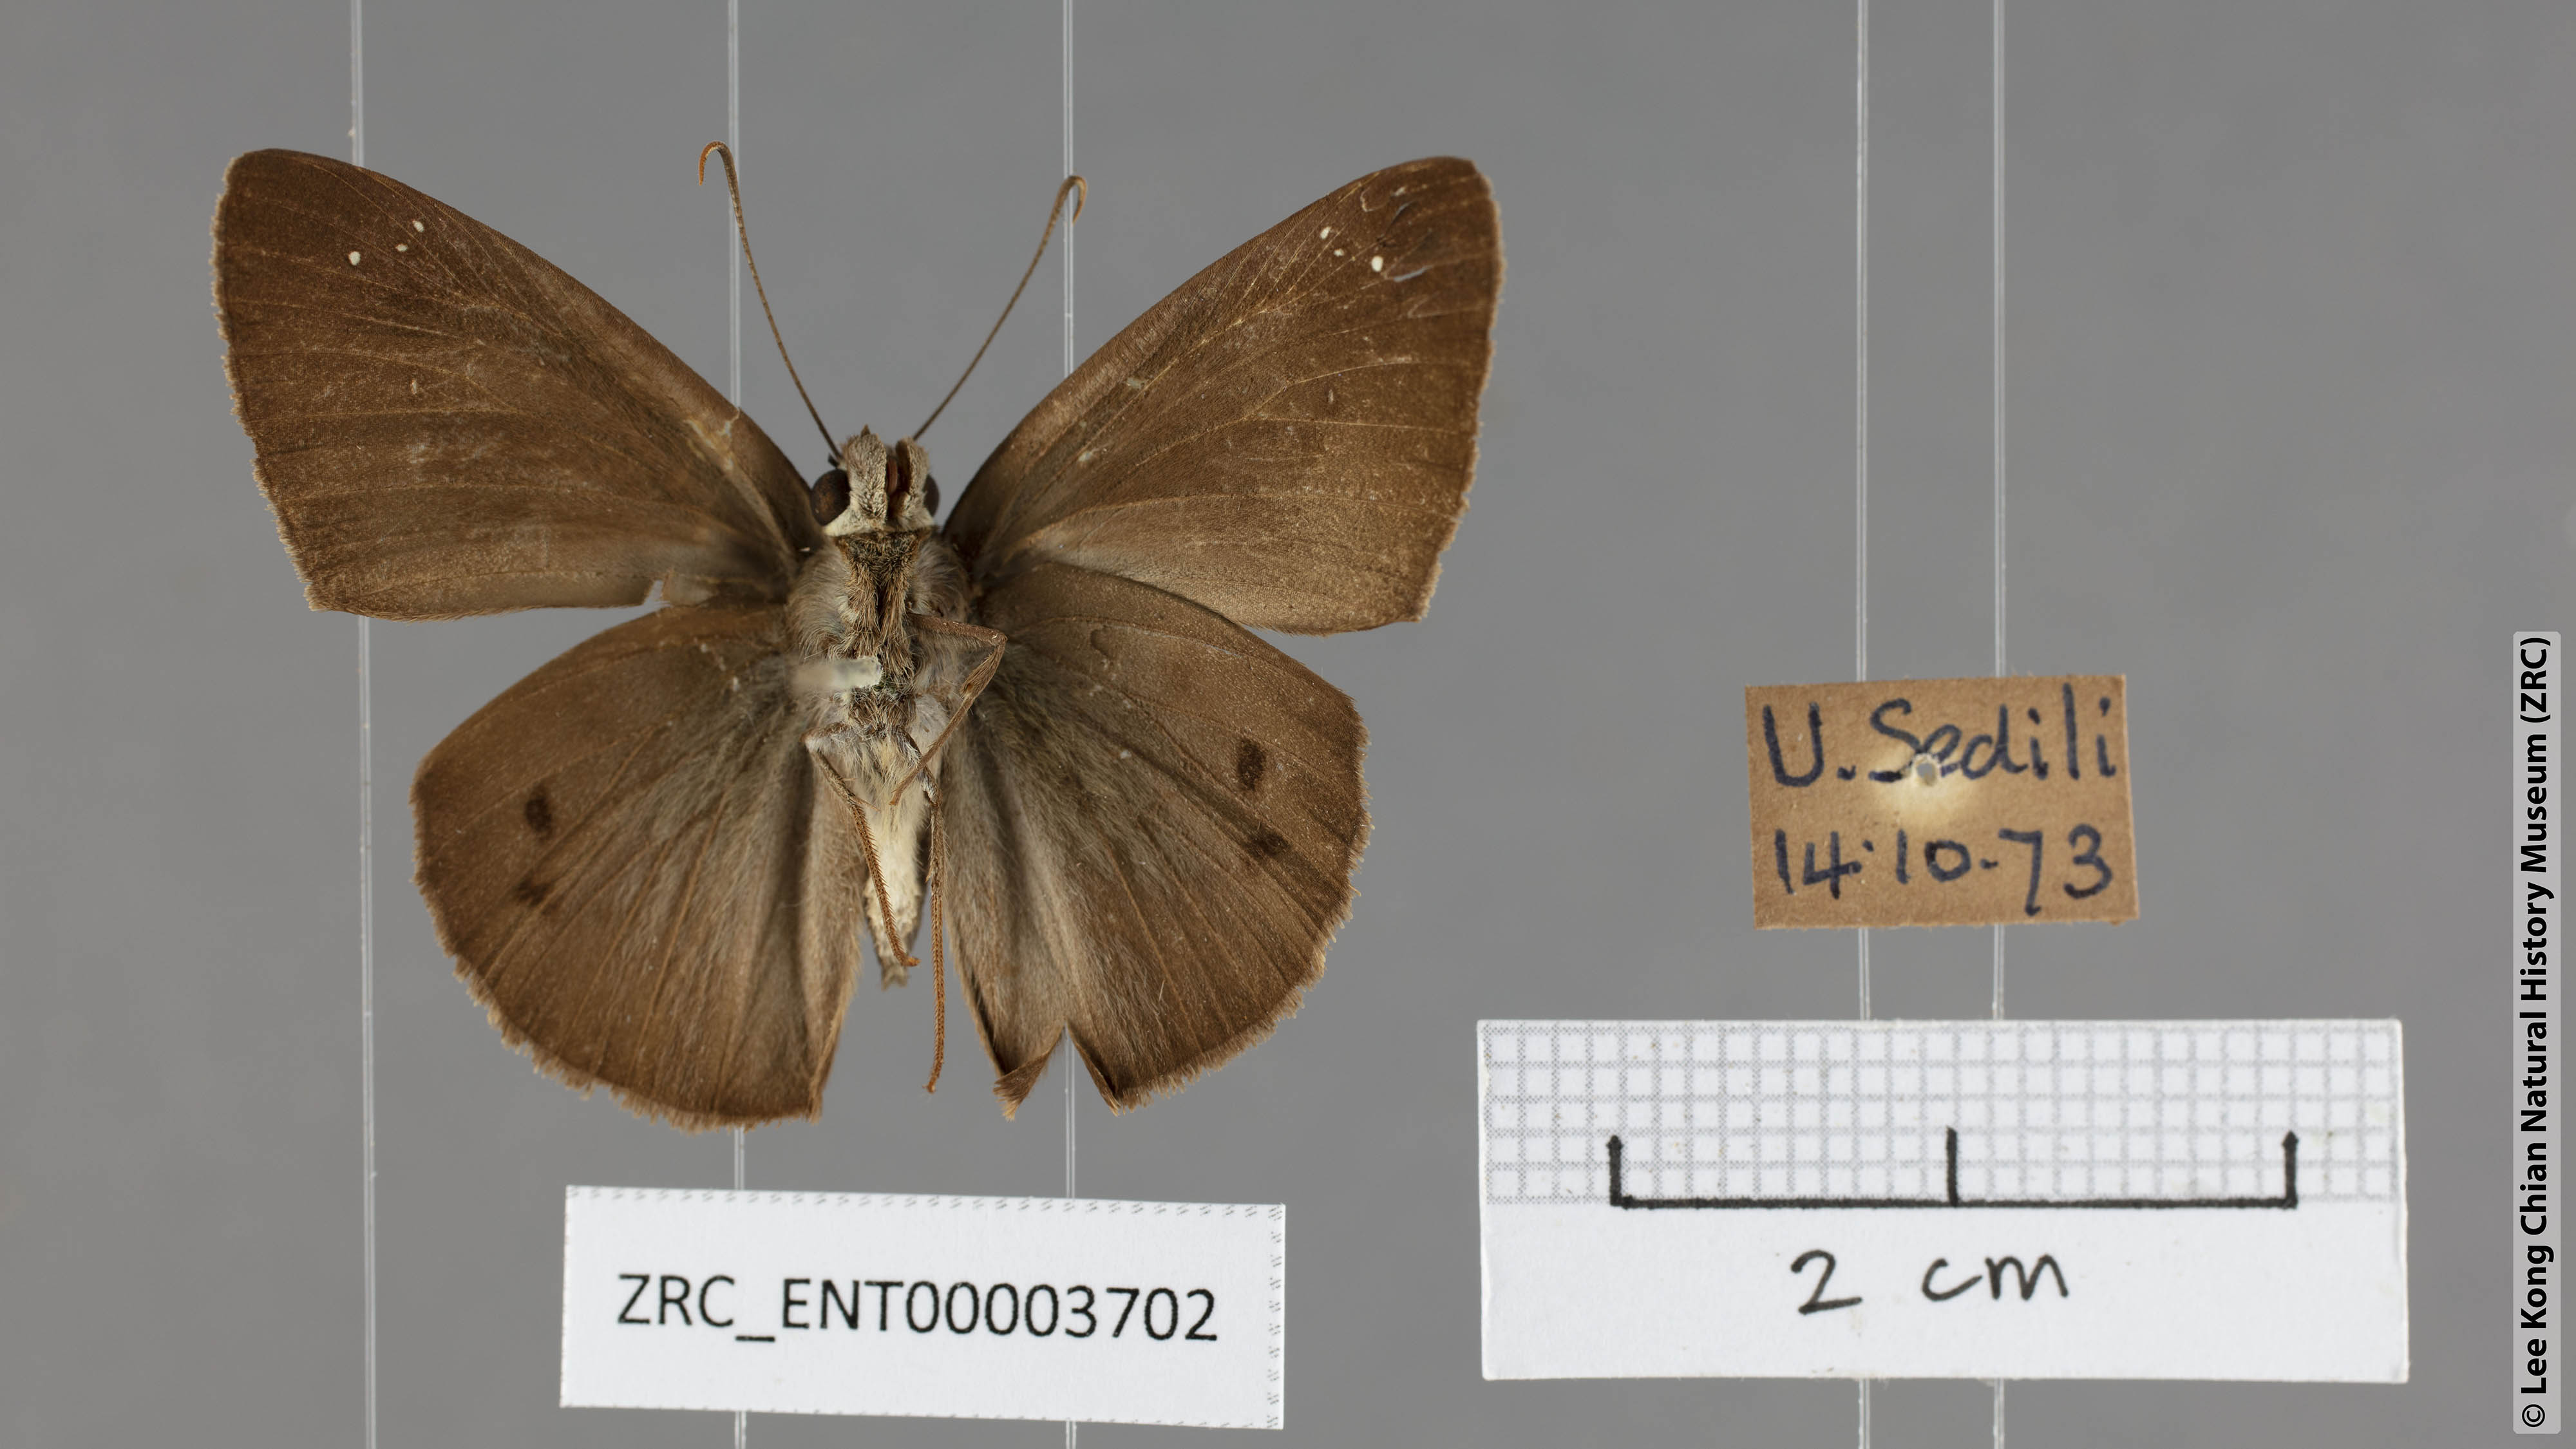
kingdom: Animalia
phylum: Arthropoda
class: Insecta
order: Lepidoptera
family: Hesperiidae
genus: Tagiades
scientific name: Tagiades japetus
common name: Pied flat
